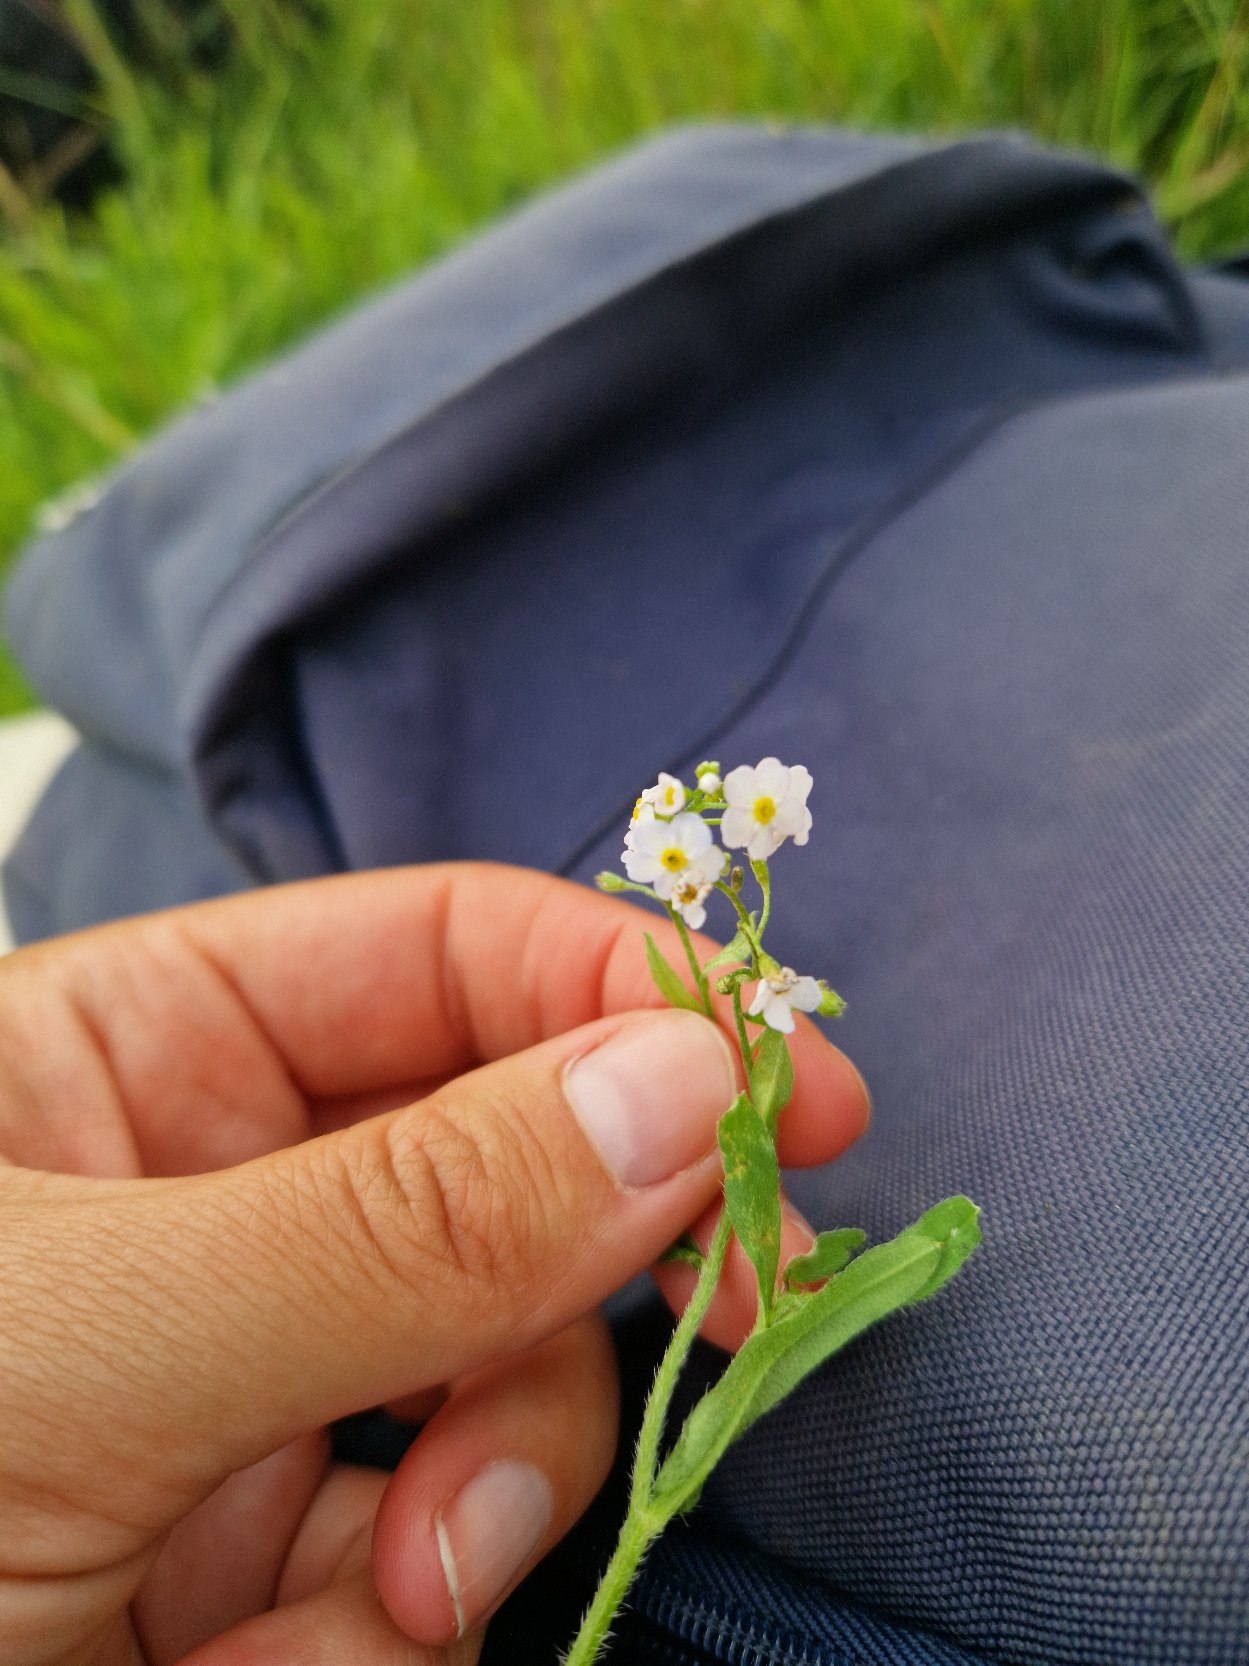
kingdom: Plantae
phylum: Tracheophyta
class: Magnoliopsida
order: Boraginales
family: Boraginaceae
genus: Myosotis
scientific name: Myosotis scorpioides
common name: Eng-forglemmigej
